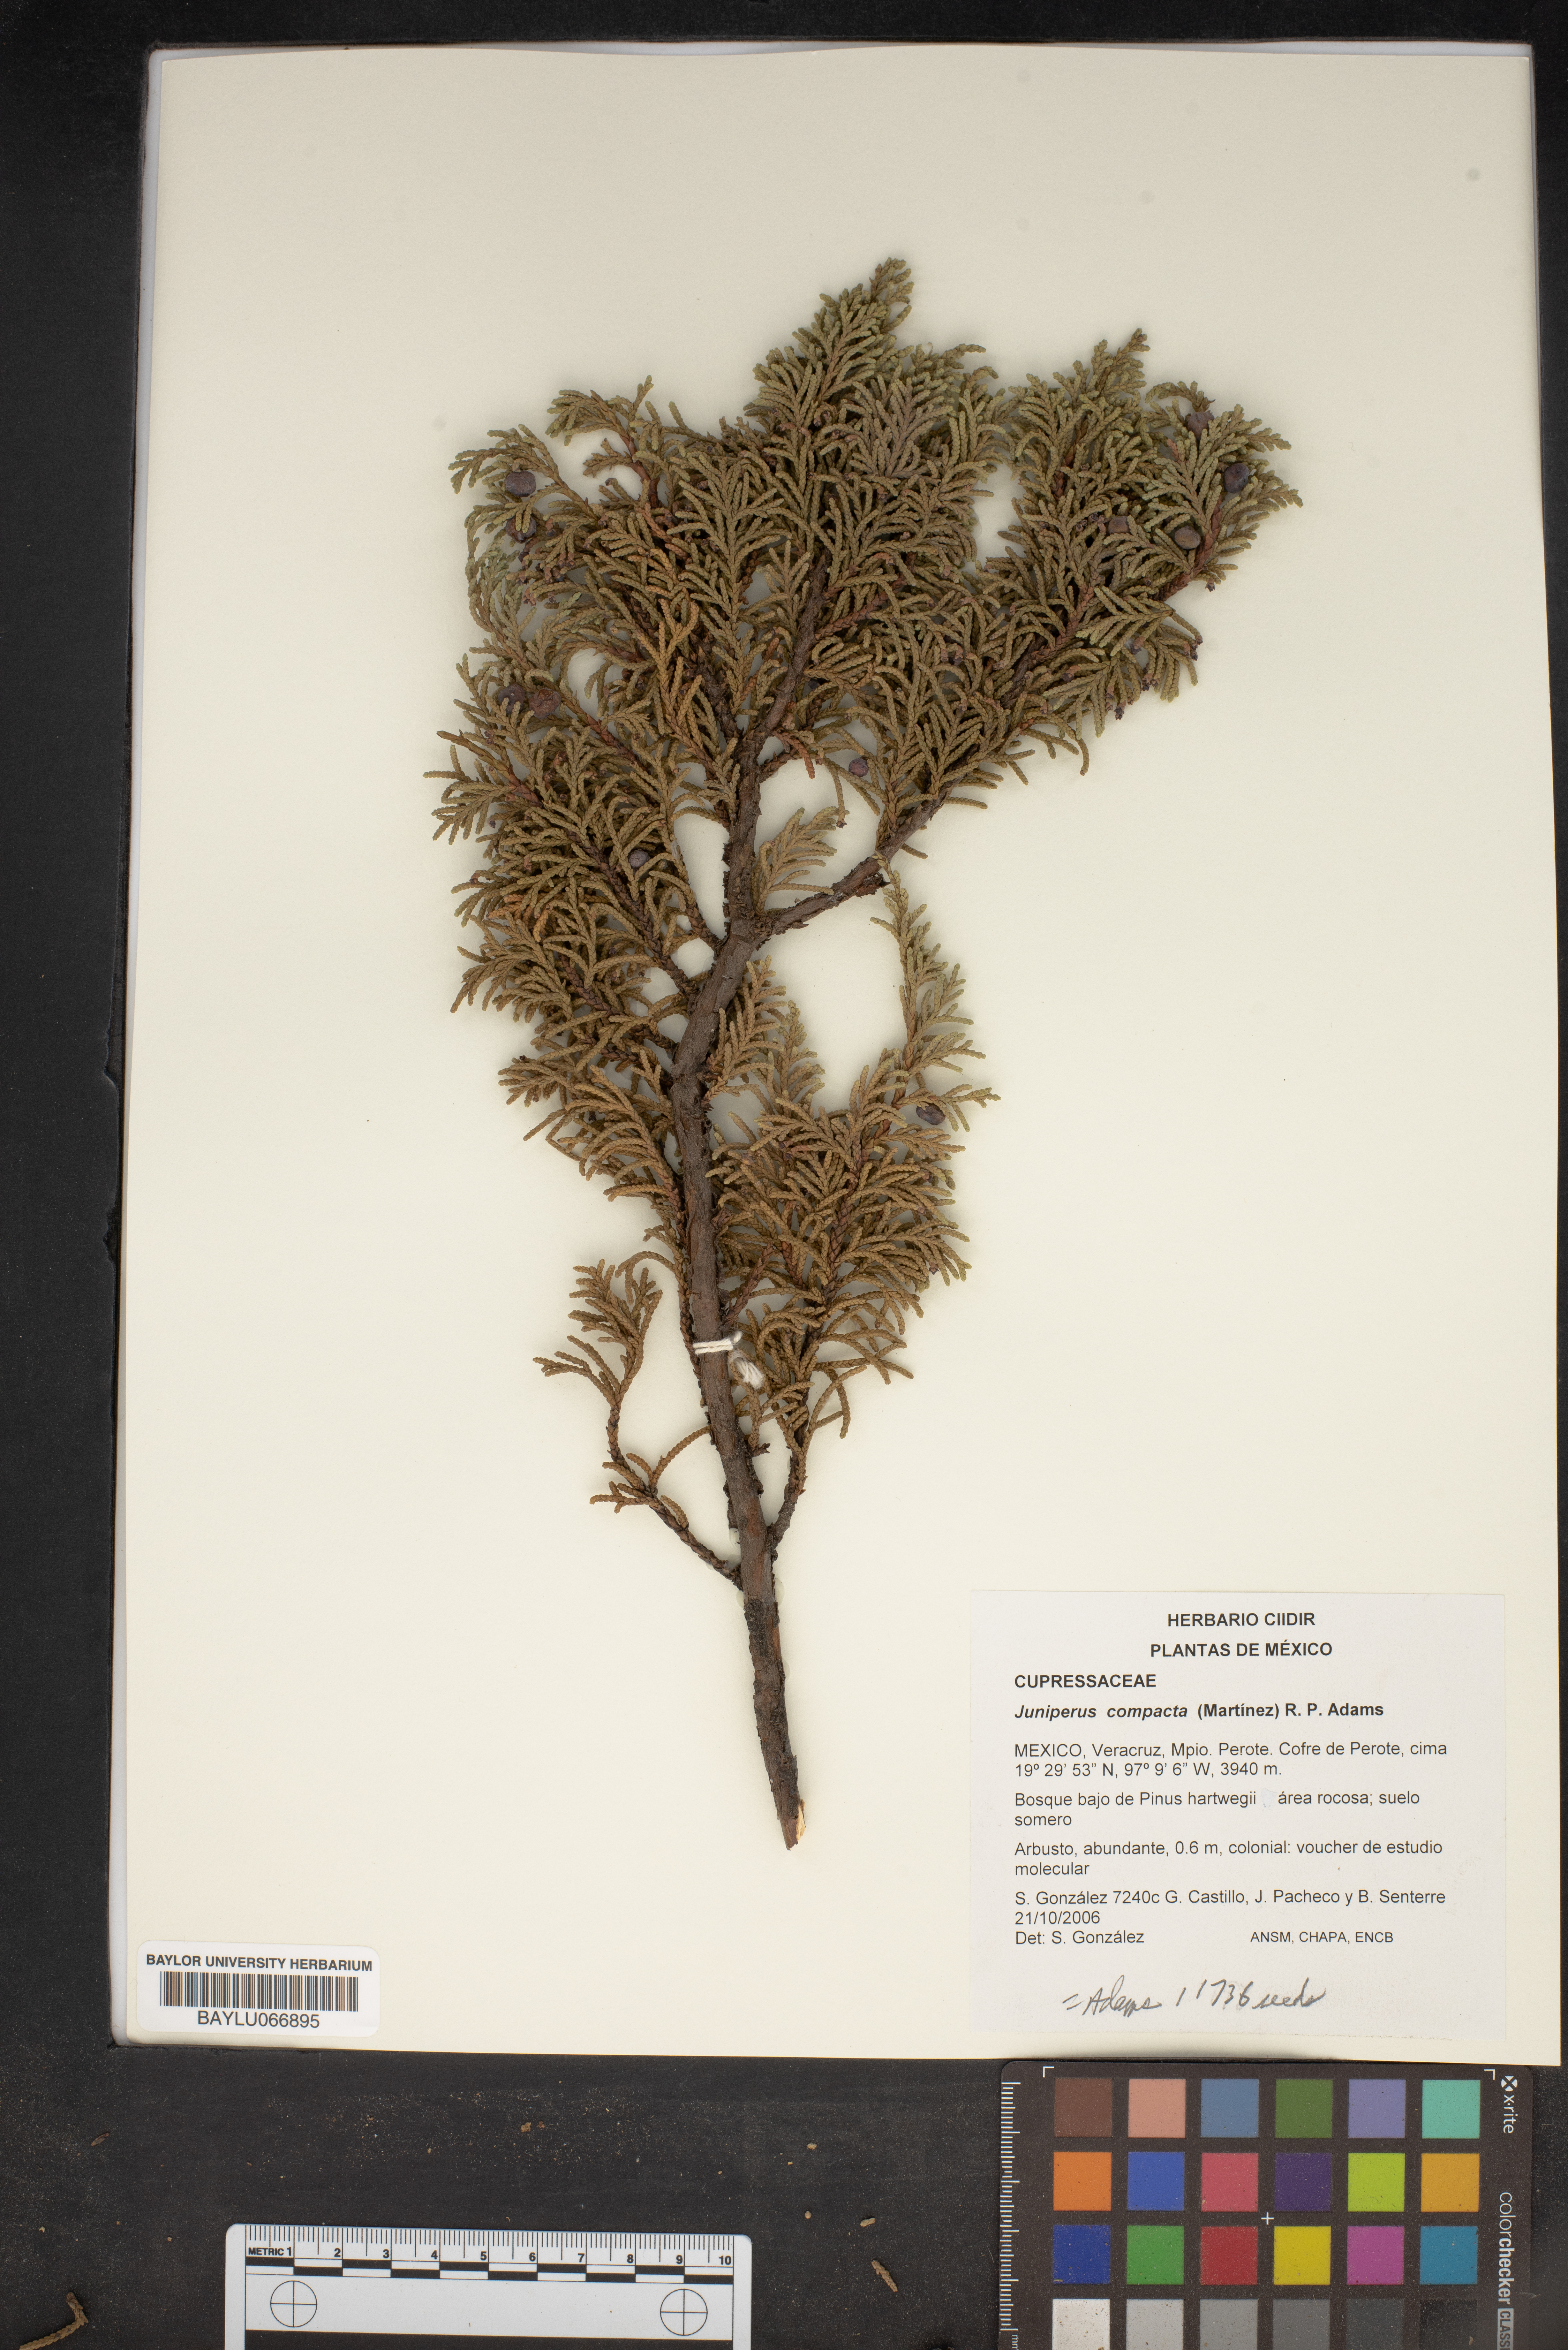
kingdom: Plantae
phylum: Tracheophyta
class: Pinopsida
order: Pinales
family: Cupressaceae
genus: Juniperus
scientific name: Juniperus monticola
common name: Mexican juniper
